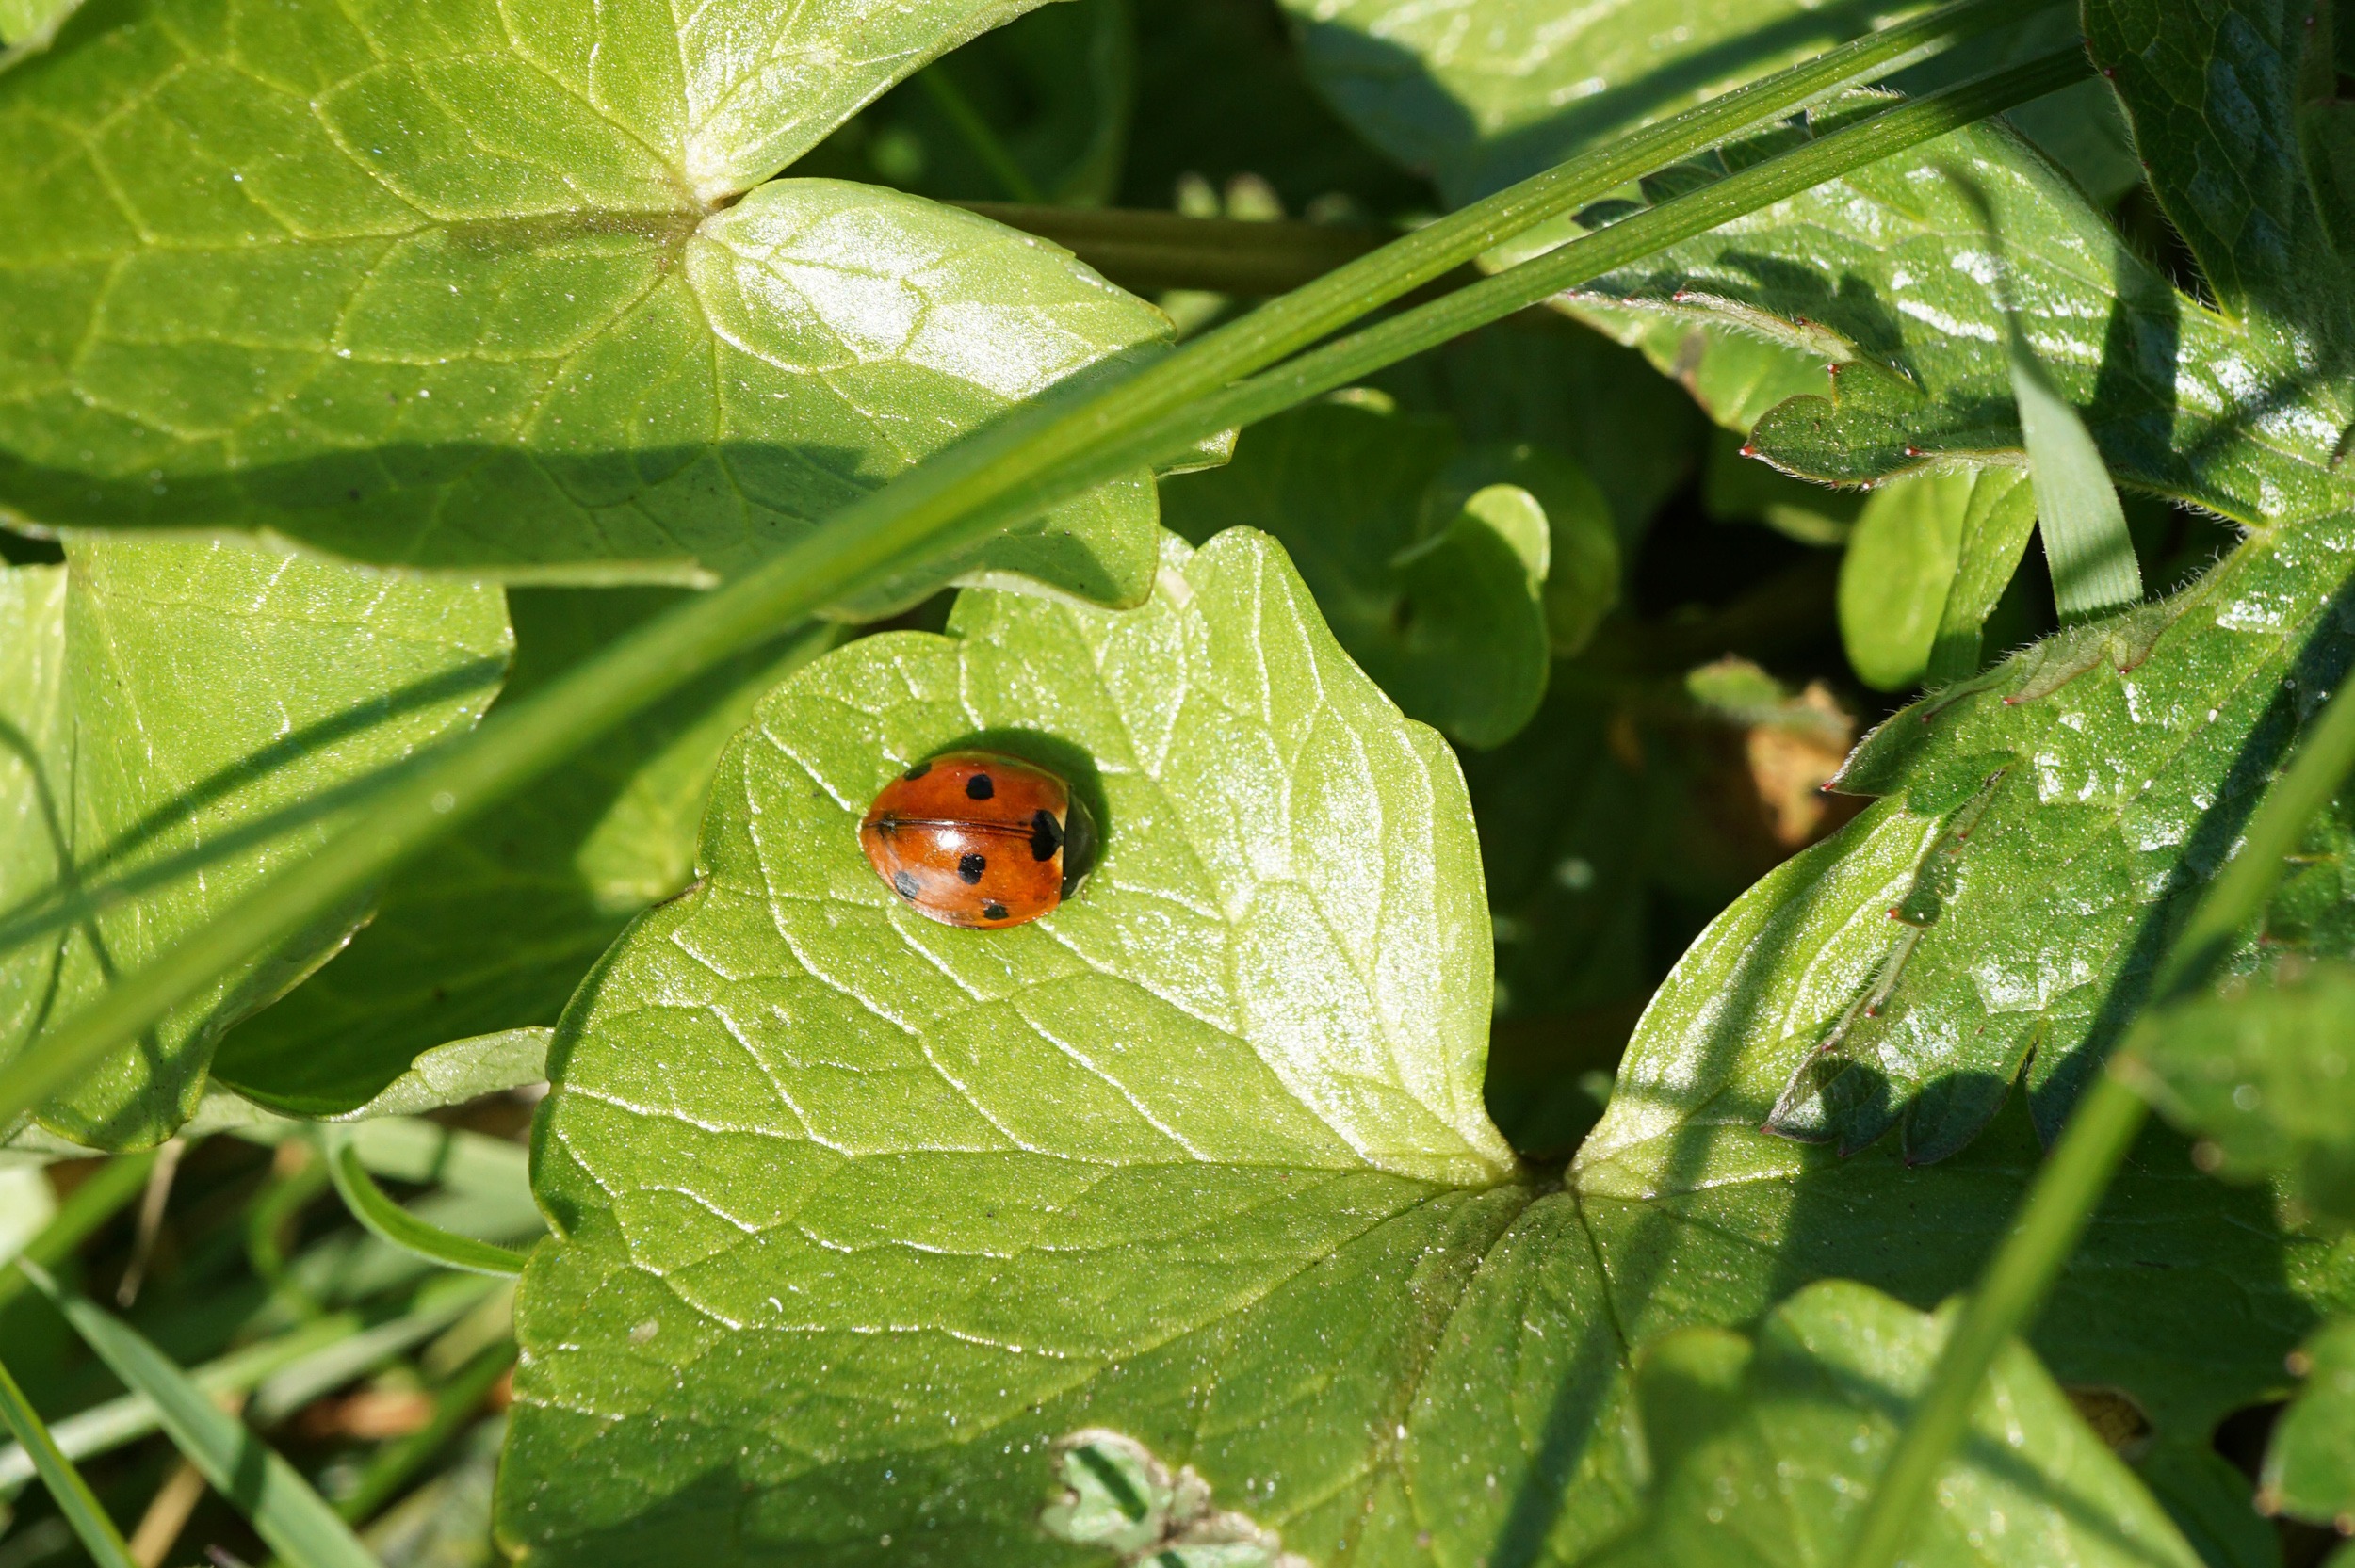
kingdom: Animalia
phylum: Arthropoda
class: Insecta
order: Coleoptera
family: Coccinellidae
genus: Coccinella
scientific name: Coccinella septempunctata
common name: Syvplettet mariehøne
